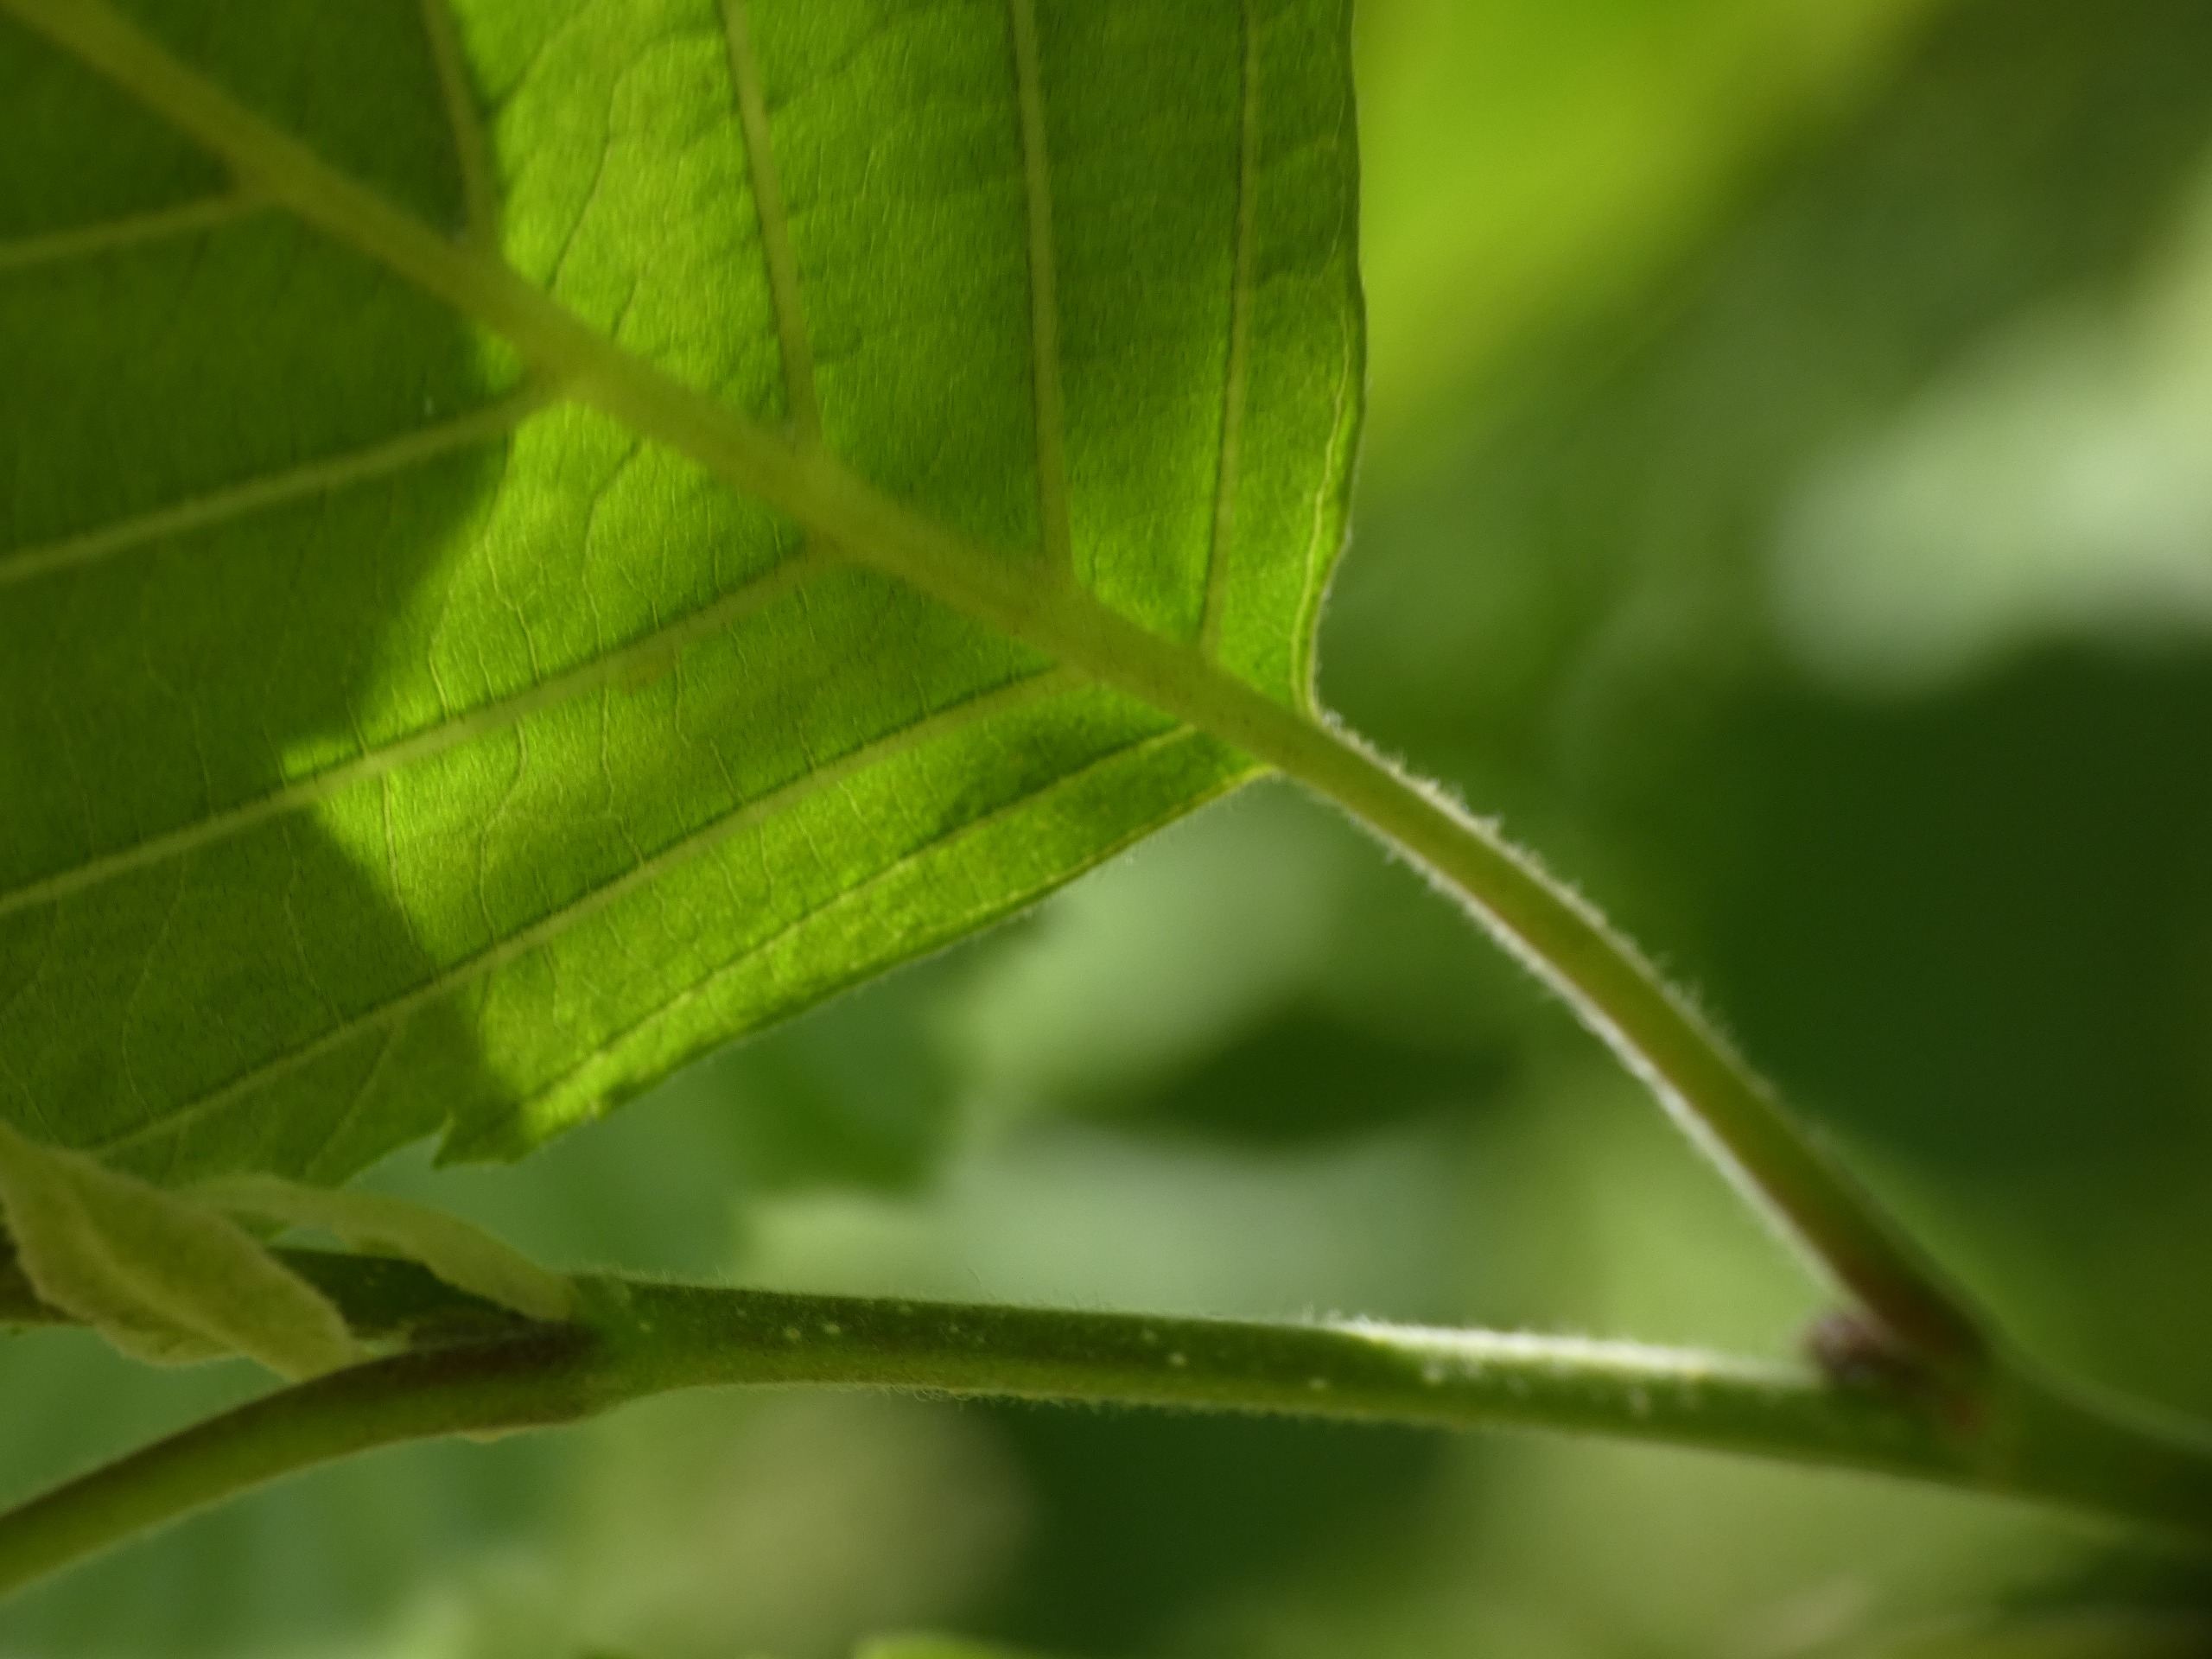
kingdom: Plantae
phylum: Tracheophyta
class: Magnoliopsida
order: Fagales
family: Betulaceae
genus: Alnus
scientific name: Alnus incana
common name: Grå-el/hvid-el
